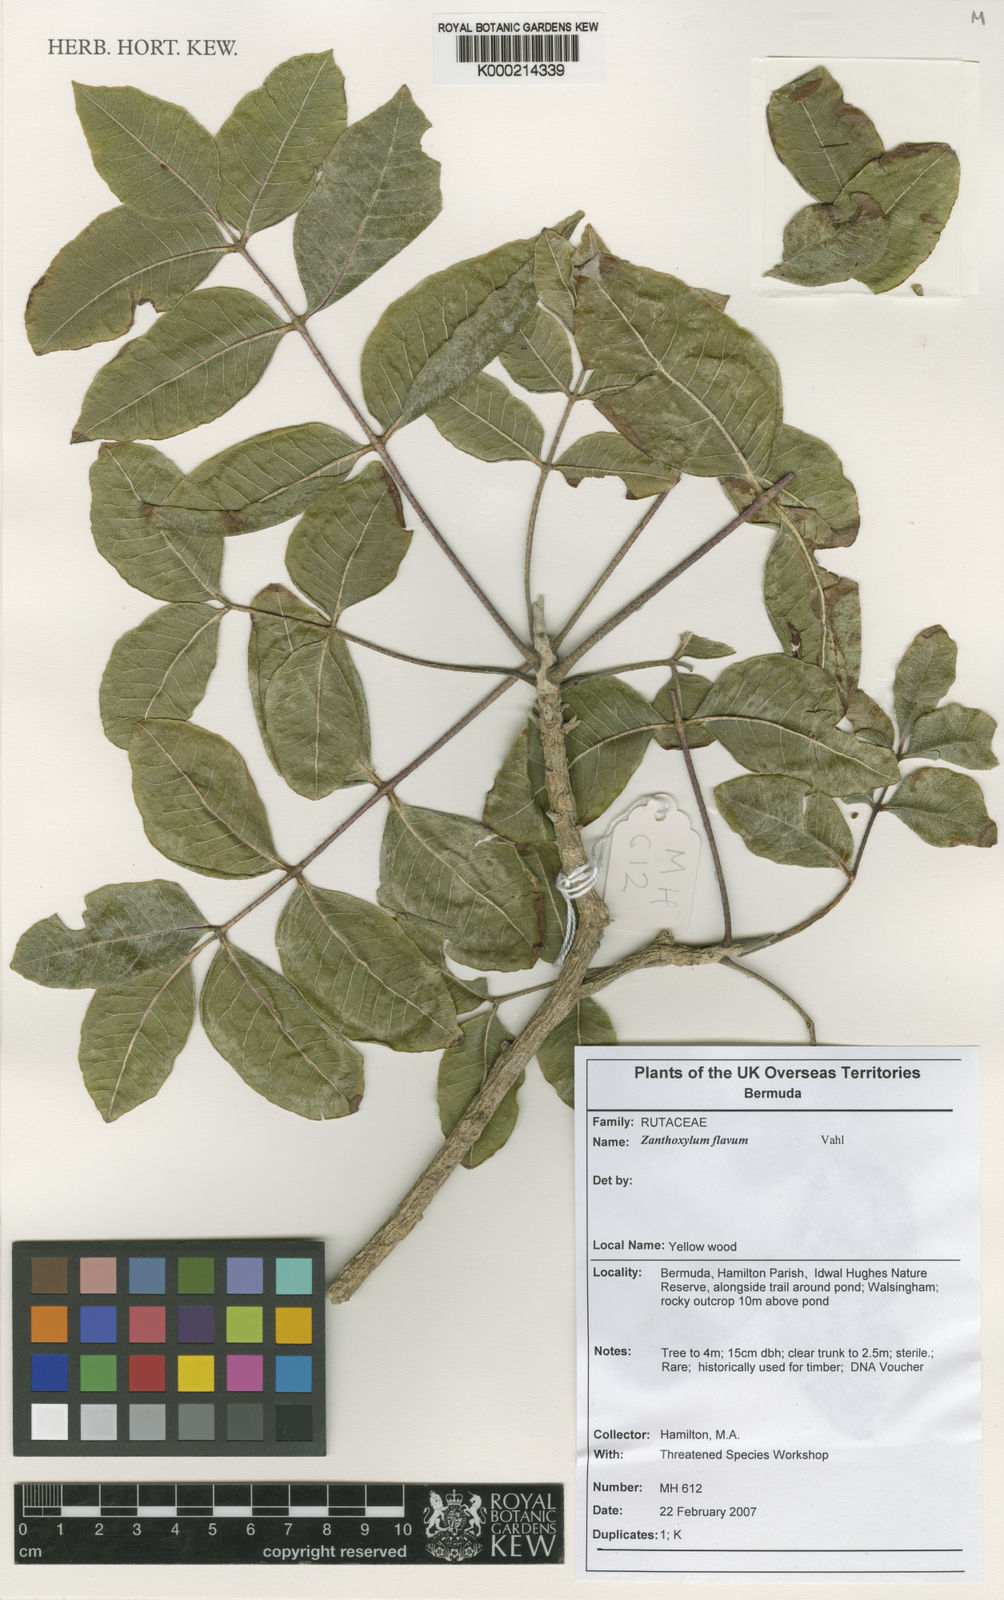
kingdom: Plantae
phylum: Tracheophyta
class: Magnoliopsida
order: Sapindales
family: Rutaceae
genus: Zanthoxylum
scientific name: Zanthoxylum flavum
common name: West indian satinwood
